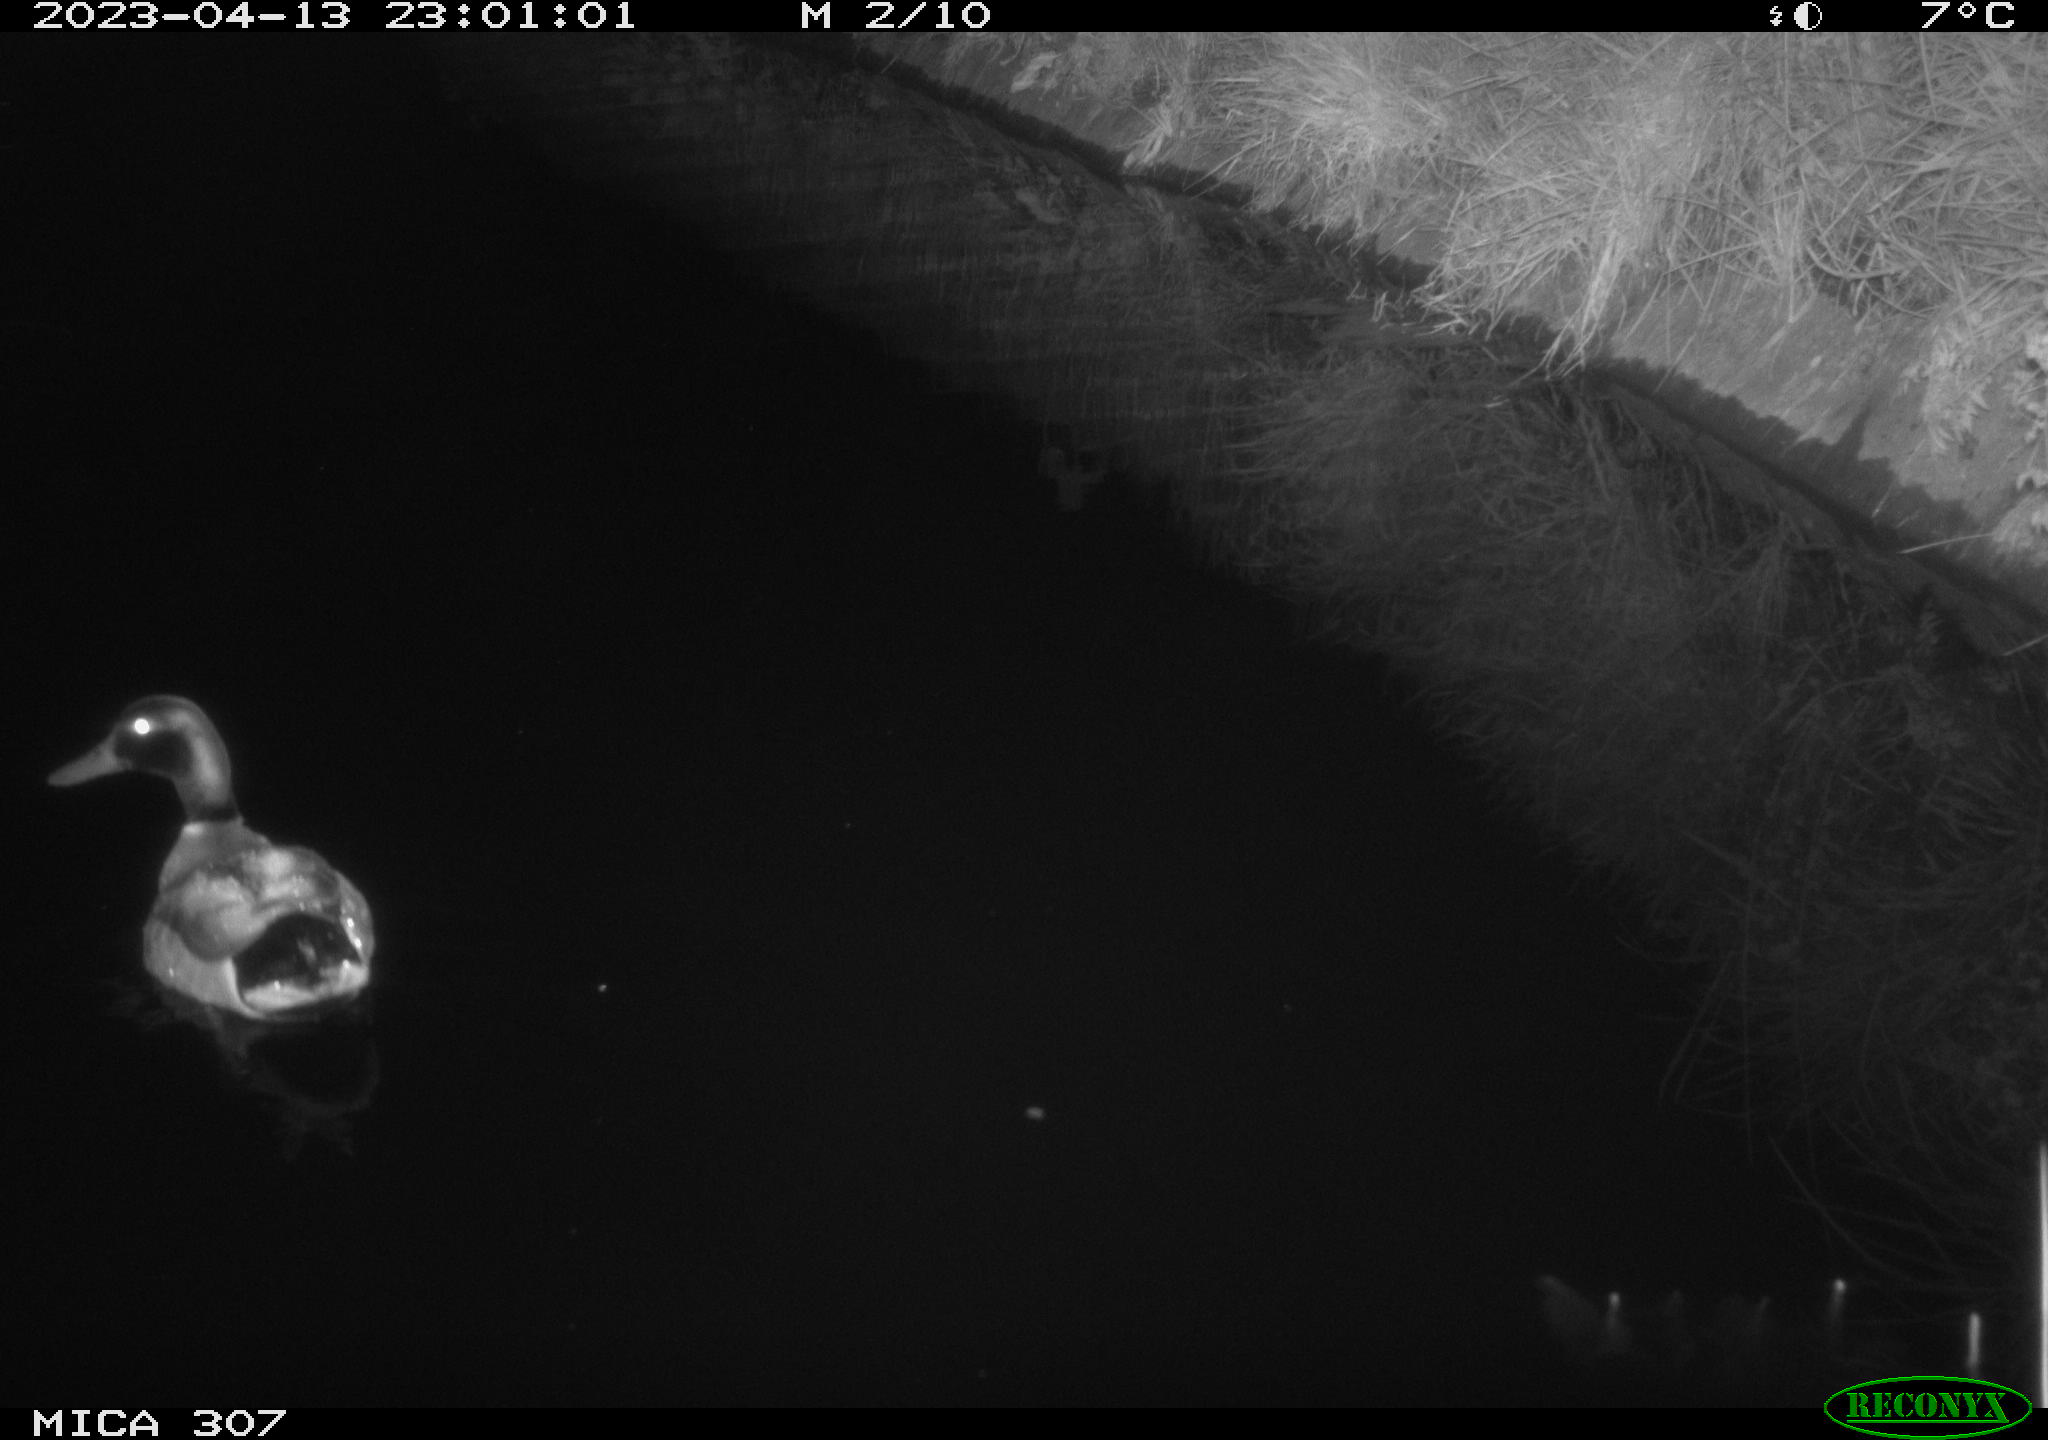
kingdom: Animalia
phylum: Chordata
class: Aves
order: Anseriformes
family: Anatidae
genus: Anas
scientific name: Anas
